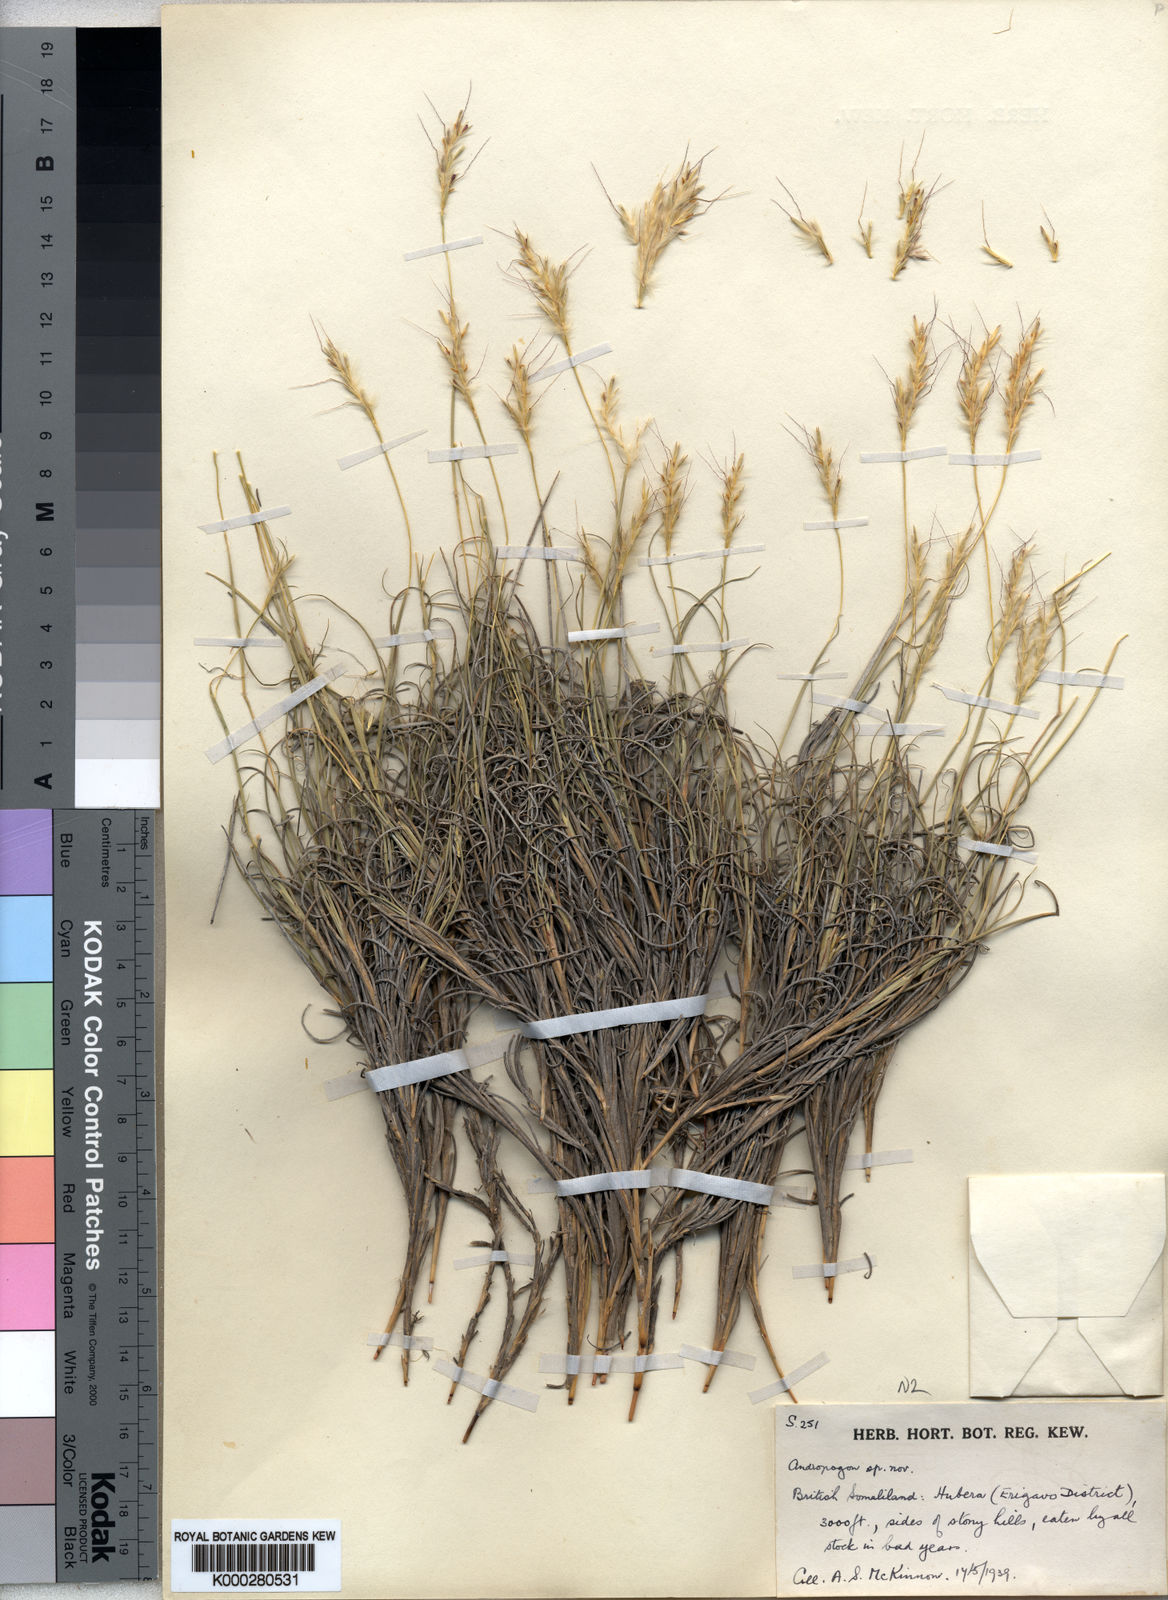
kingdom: Plantae
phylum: Tracheophyta
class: Liliopsida
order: Poales
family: Poaceae
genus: Andropogon
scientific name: Andropogon aridus
